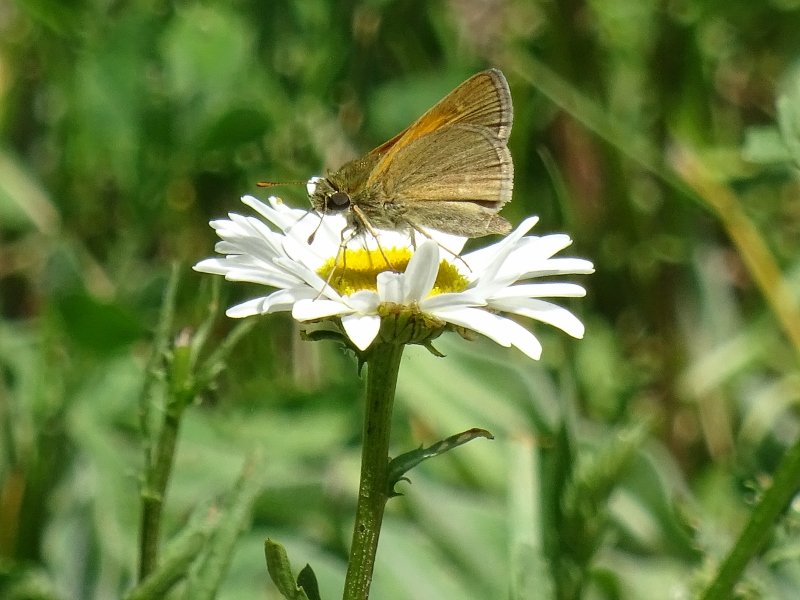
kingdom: Animalia
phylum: Arthropoda
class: Insecta
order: Lepidoptera
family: Hesperiidae
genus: Polites
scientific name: Polites themistocles
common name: Tawny-edged Skipper
